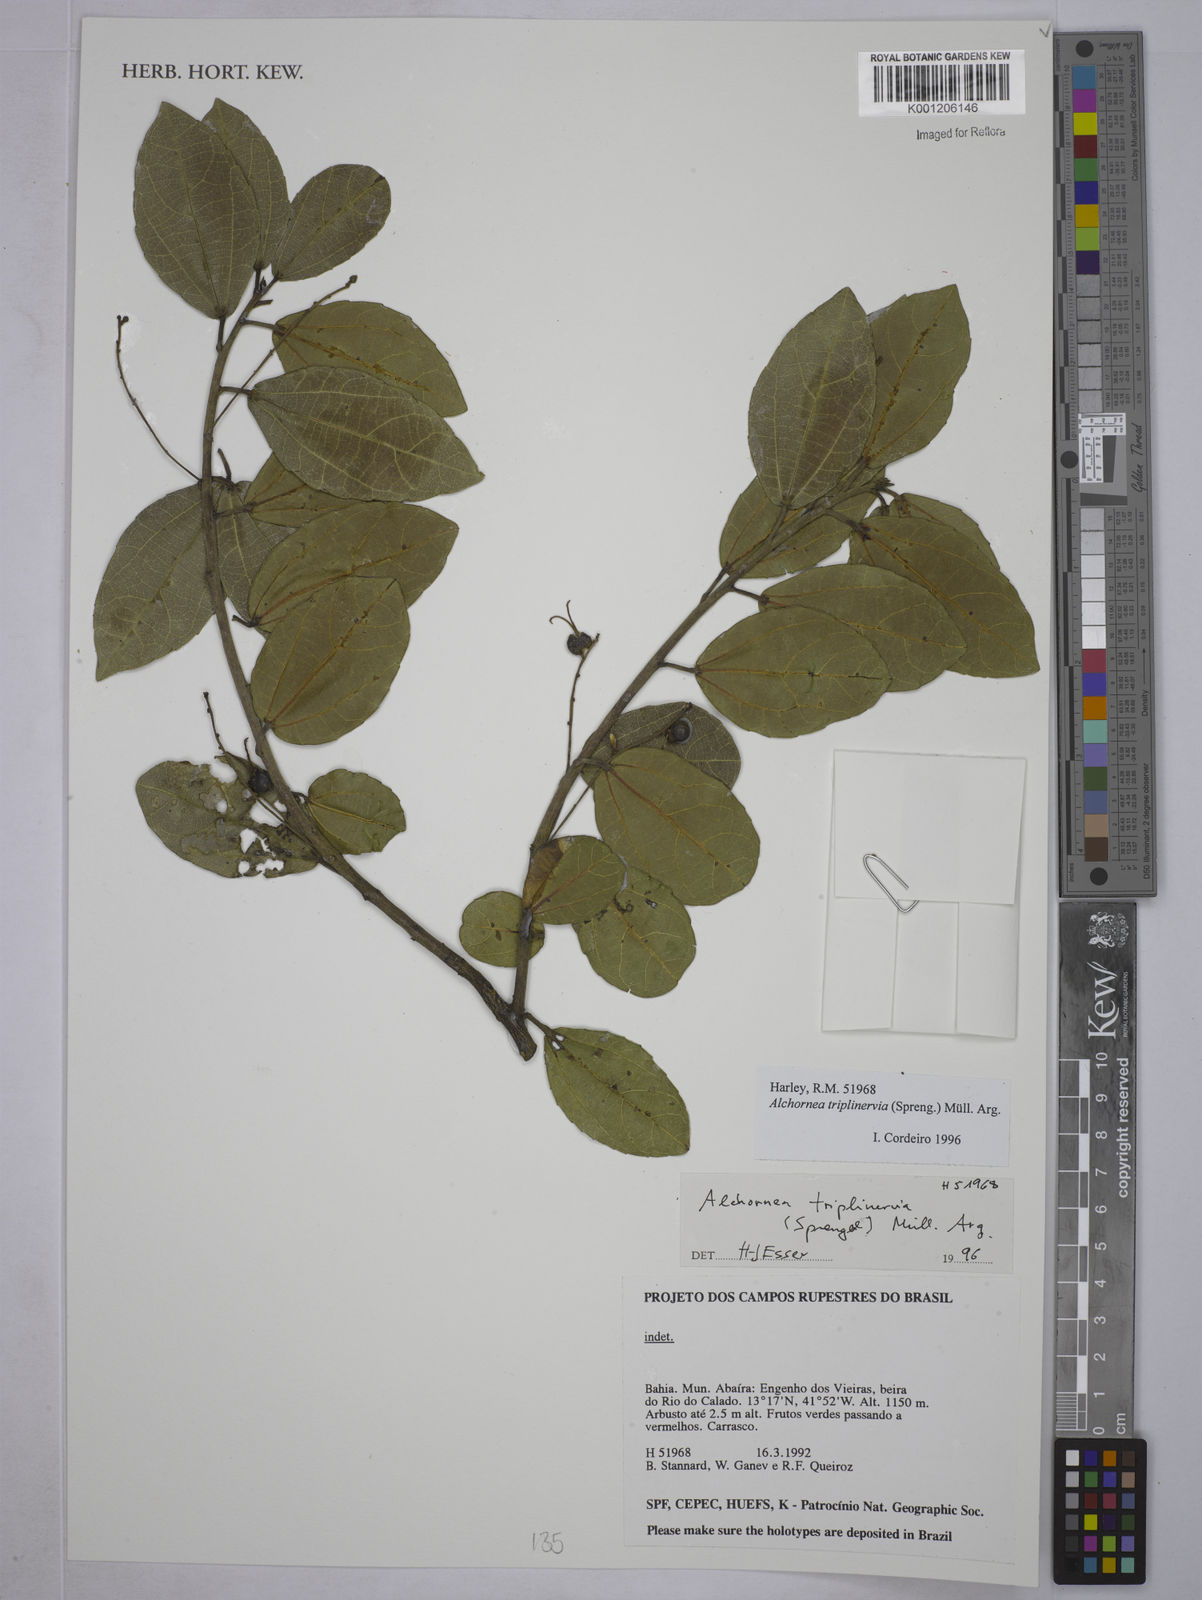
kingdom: Plantae
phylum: Tracheophyta
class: Magnoliopsida
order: Malpighiales
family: Euphorbiaceae
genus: Alchornea
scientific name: Alchornea
